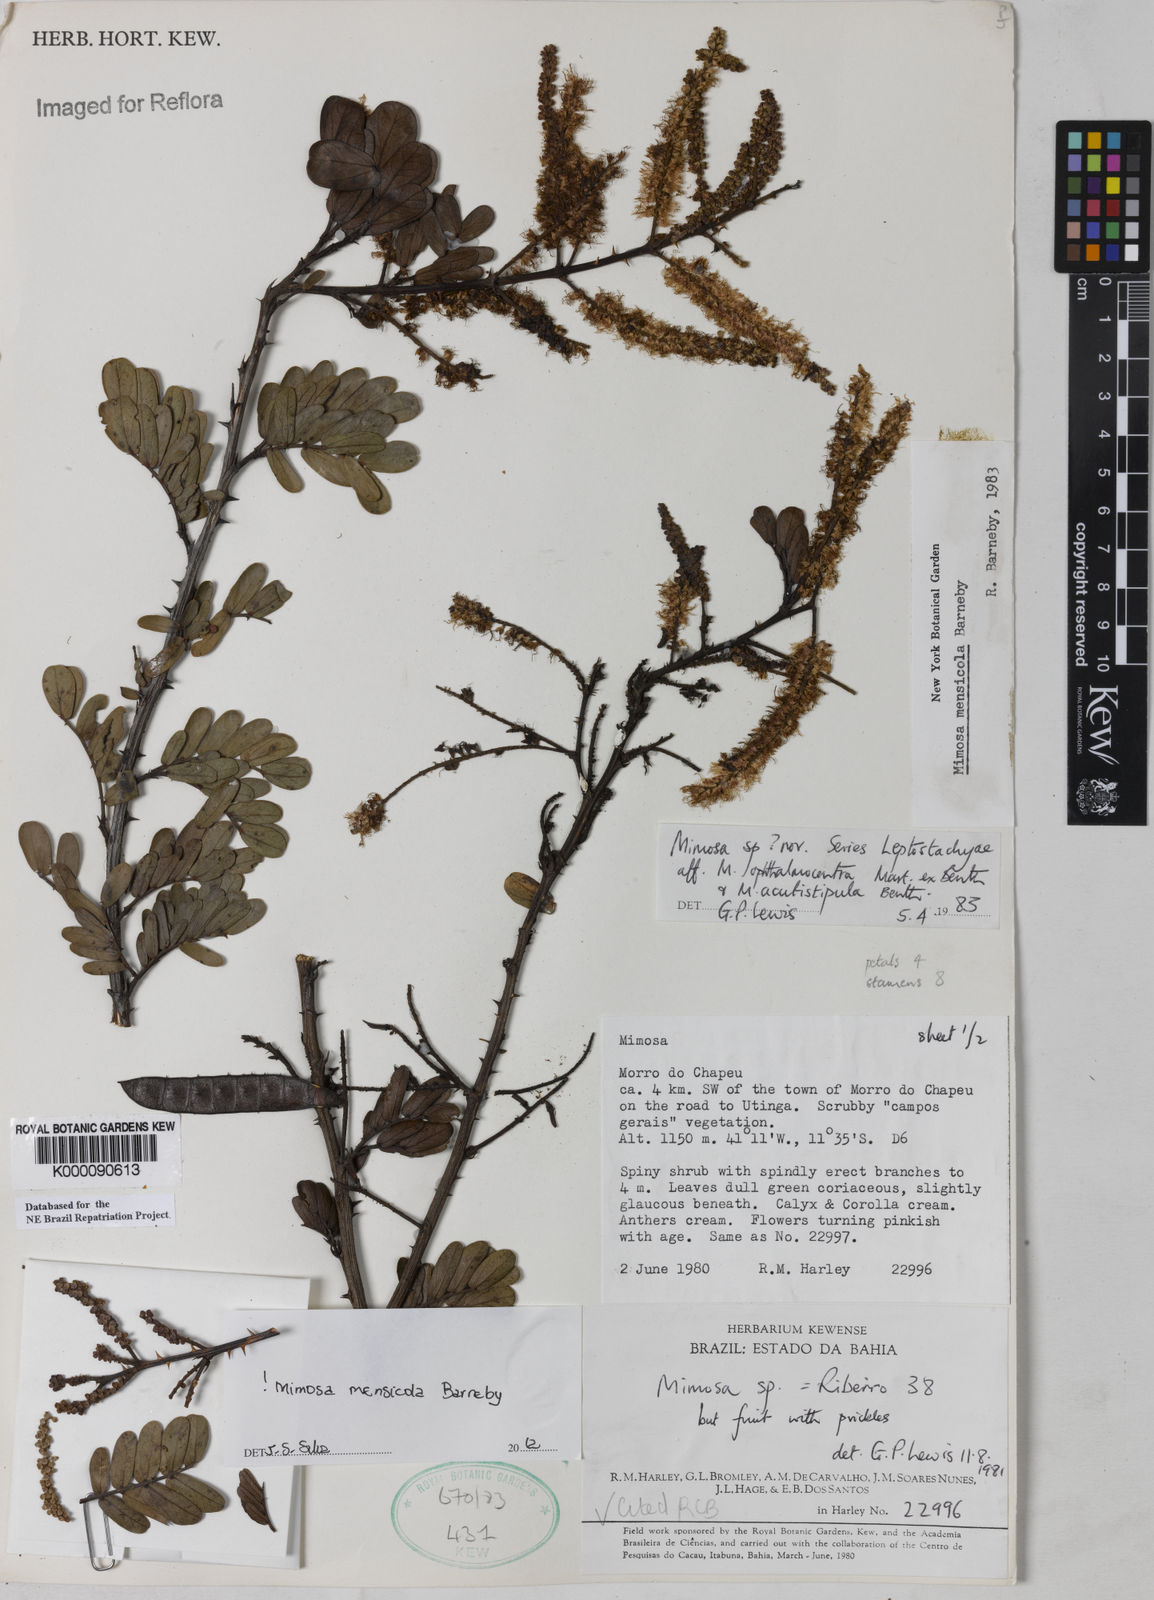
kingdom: Plantae
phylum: Tracheophyta
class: Magnoliopsida
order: Fabales
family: Fabaceae
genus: Mimosa
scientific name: Mimosa mensicola
